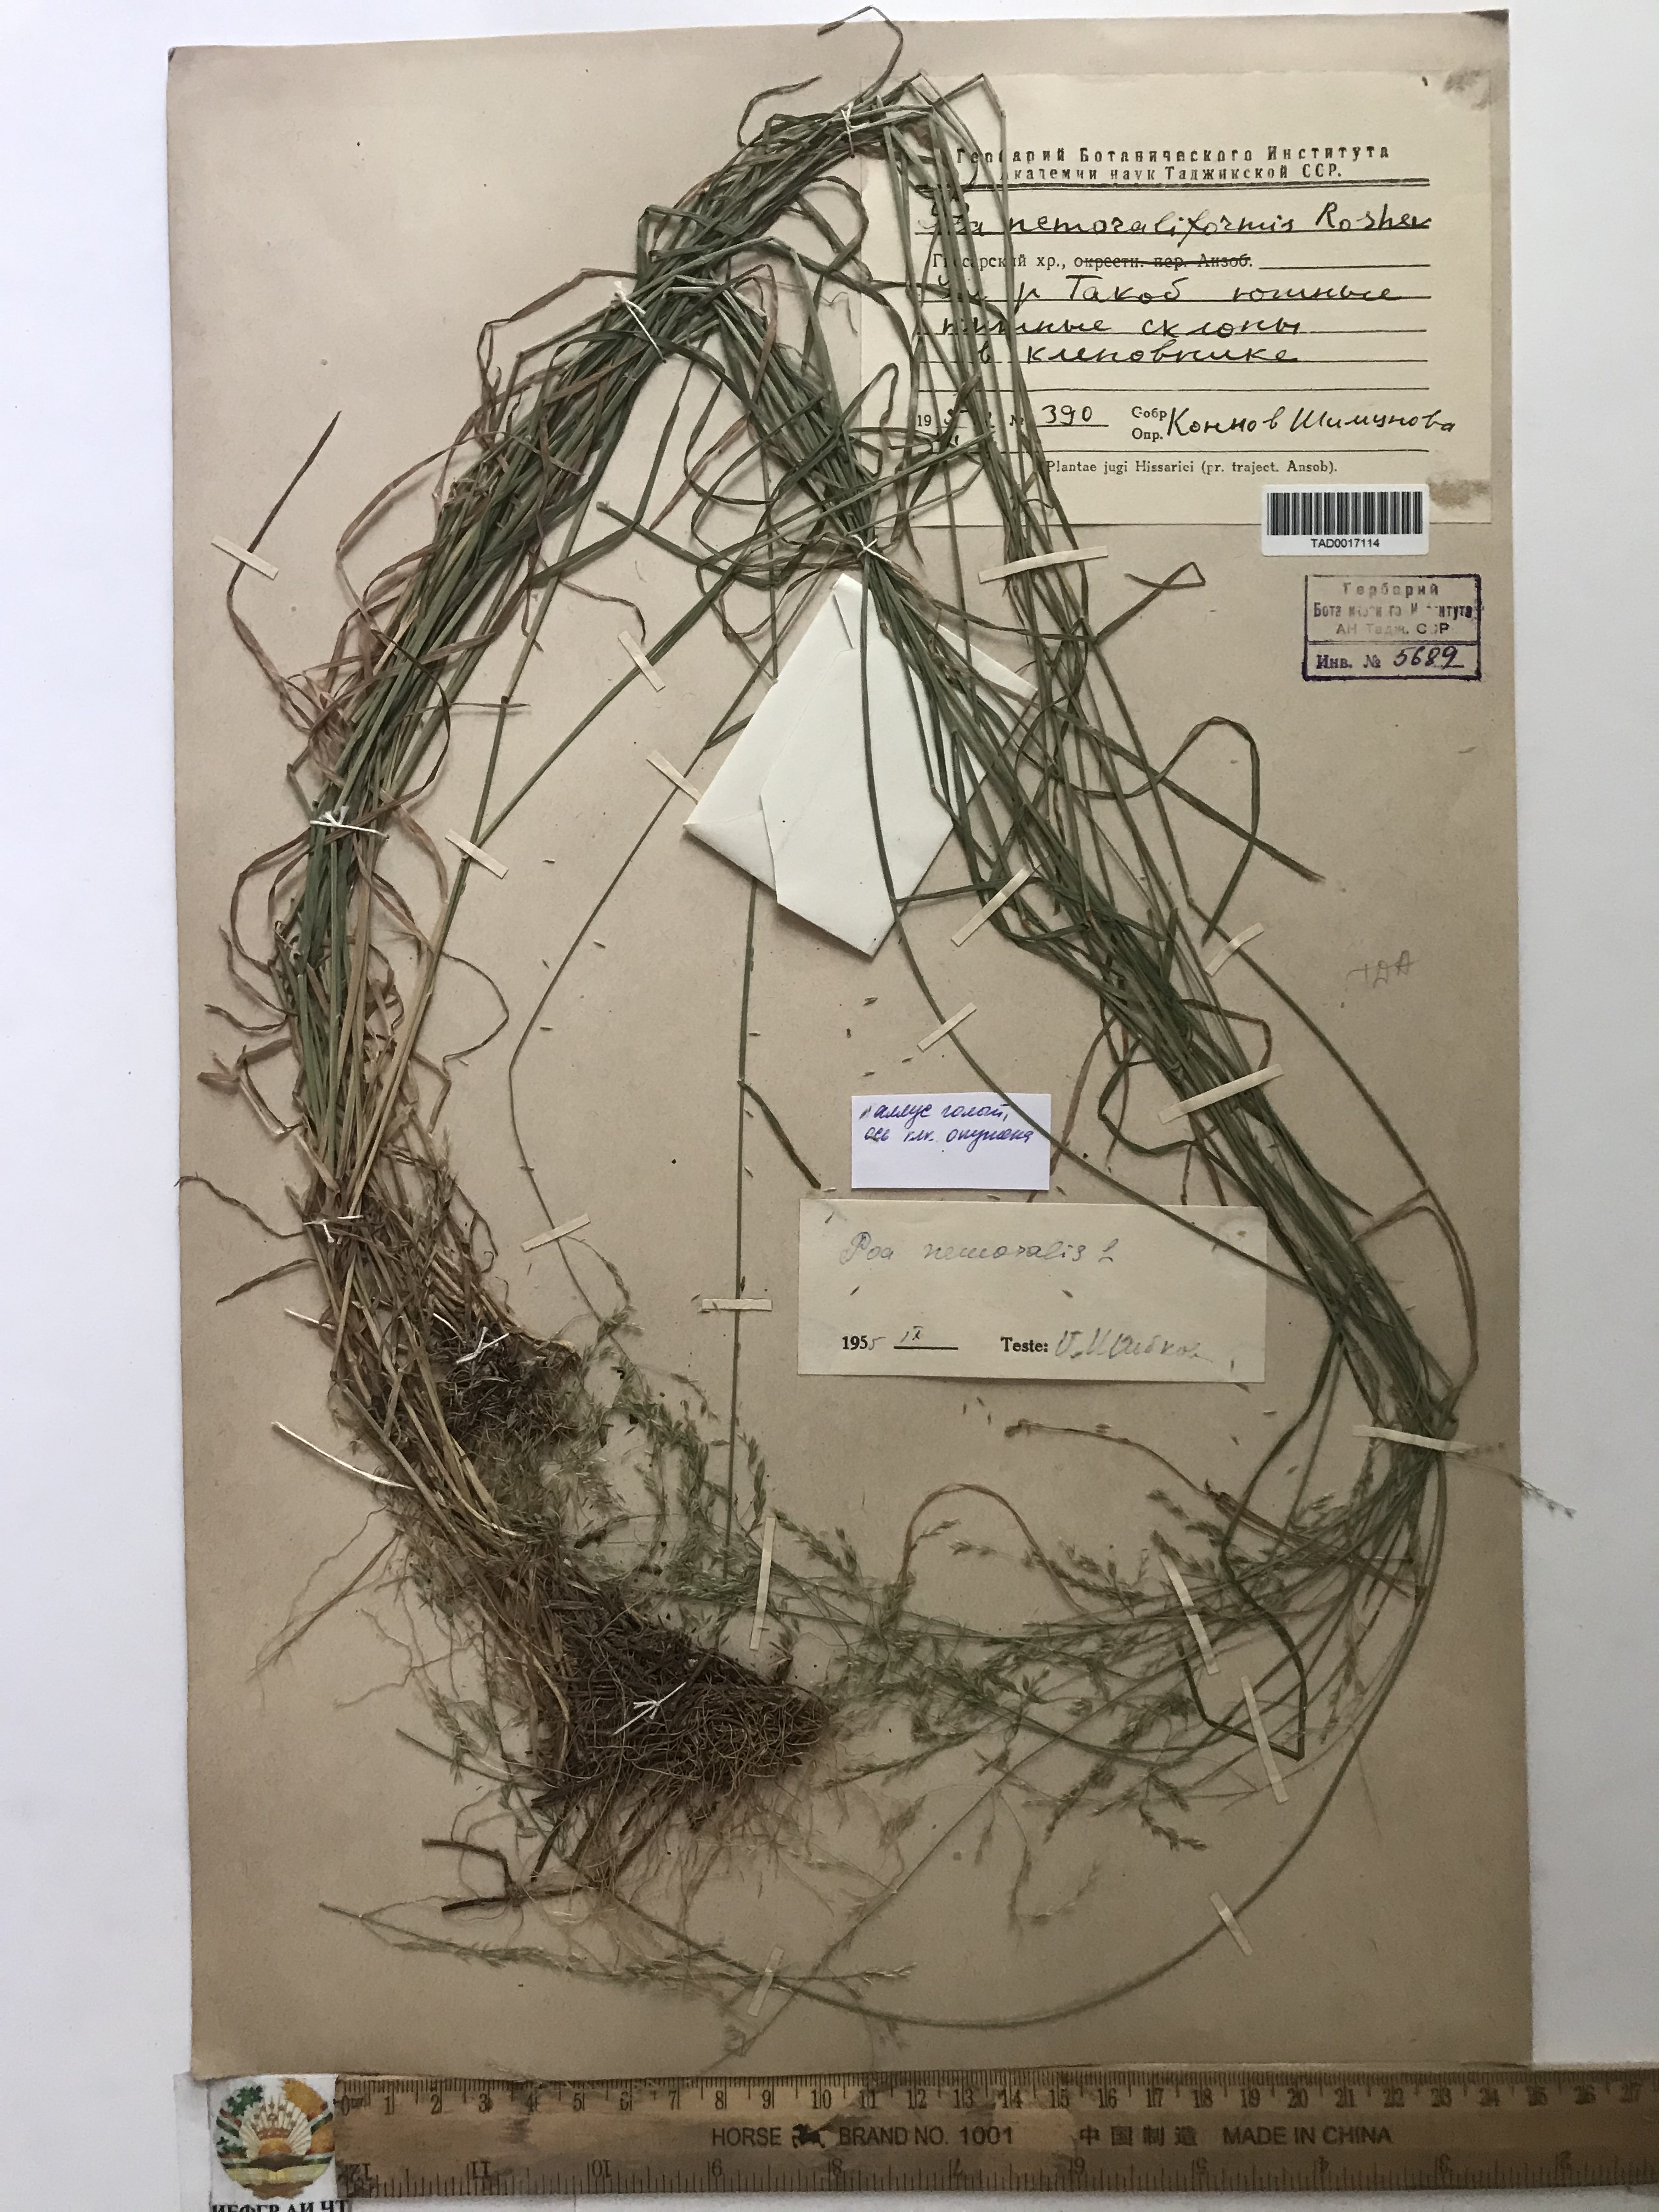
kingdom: Plantae
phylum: Tracheophyta
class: Liliopsida
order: Poales
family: Poaceae
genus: Poa
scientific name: Poa nemoralis
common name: Wood bluegrass
